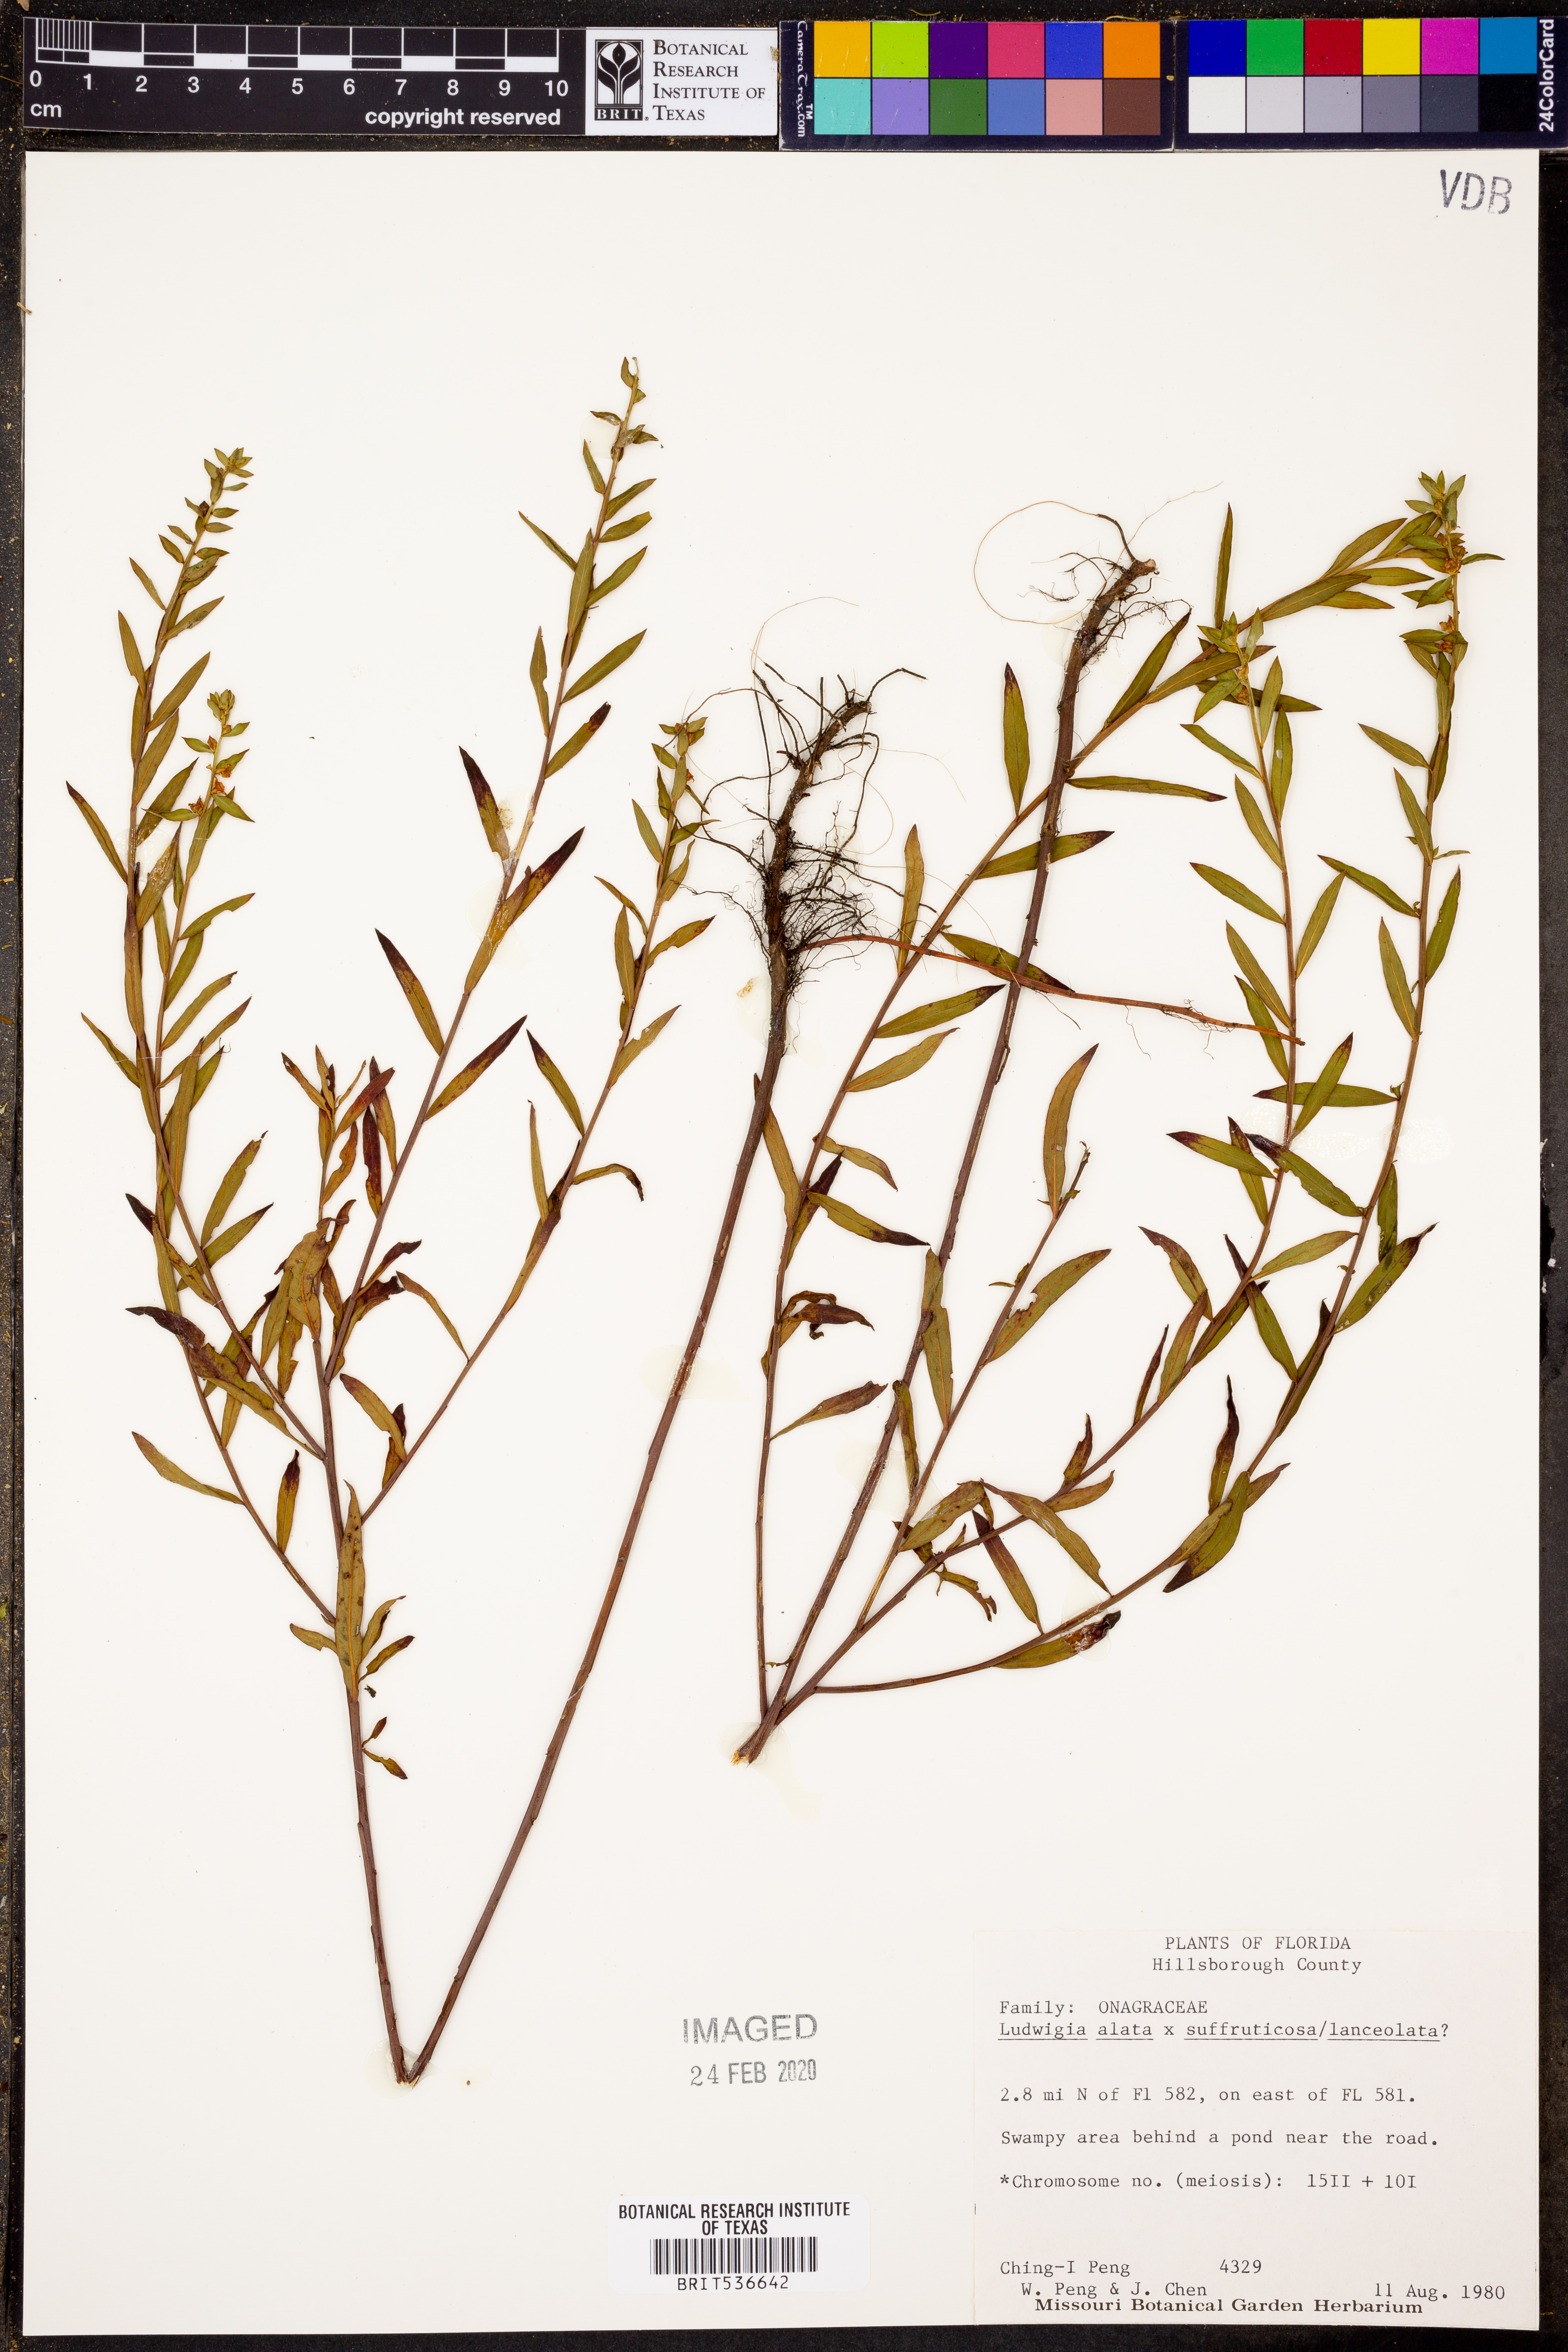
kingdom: Plantae
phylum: Tracheophyta
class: Magnoliopsida
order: Myrtales
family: Onagraceae
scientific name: Onagraceae
